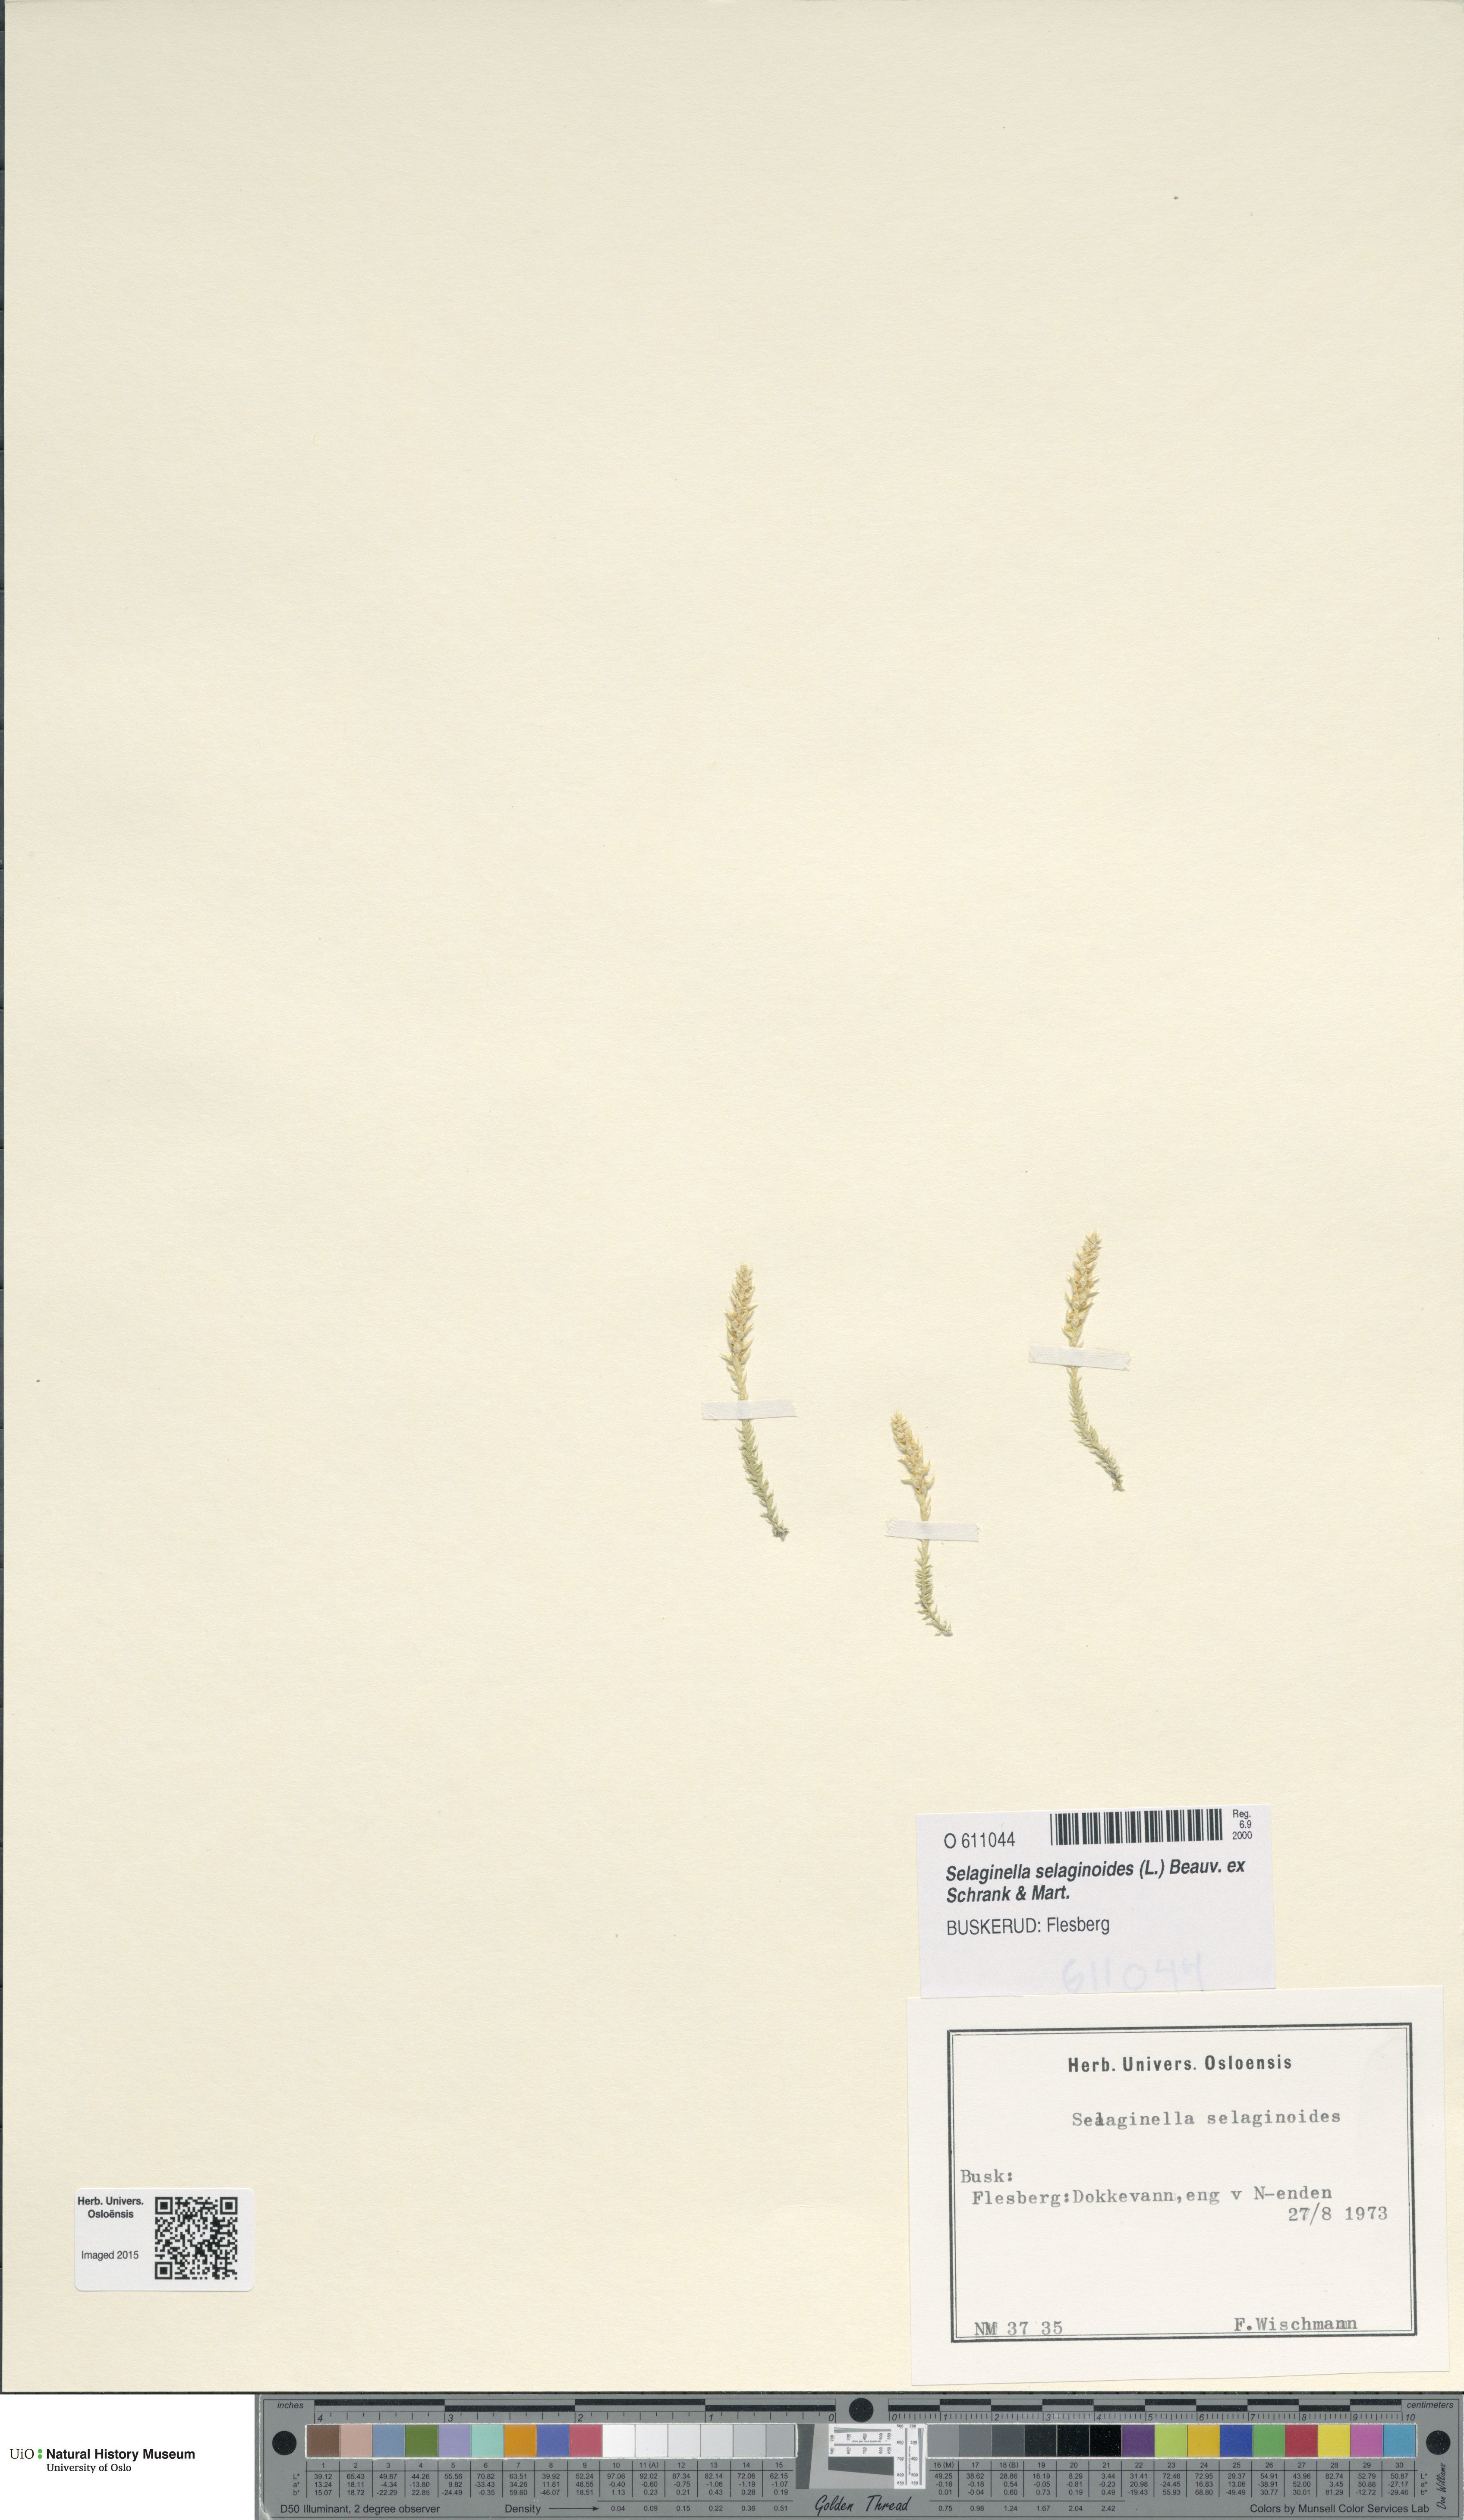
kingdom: Plantae
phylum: Tracheophyta
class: Lycopodiopsida
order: Selaginellales
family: Selaginellaceae
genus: Selaginella
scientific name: Selaginella selaginoides
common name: Prickly mountain-moss
